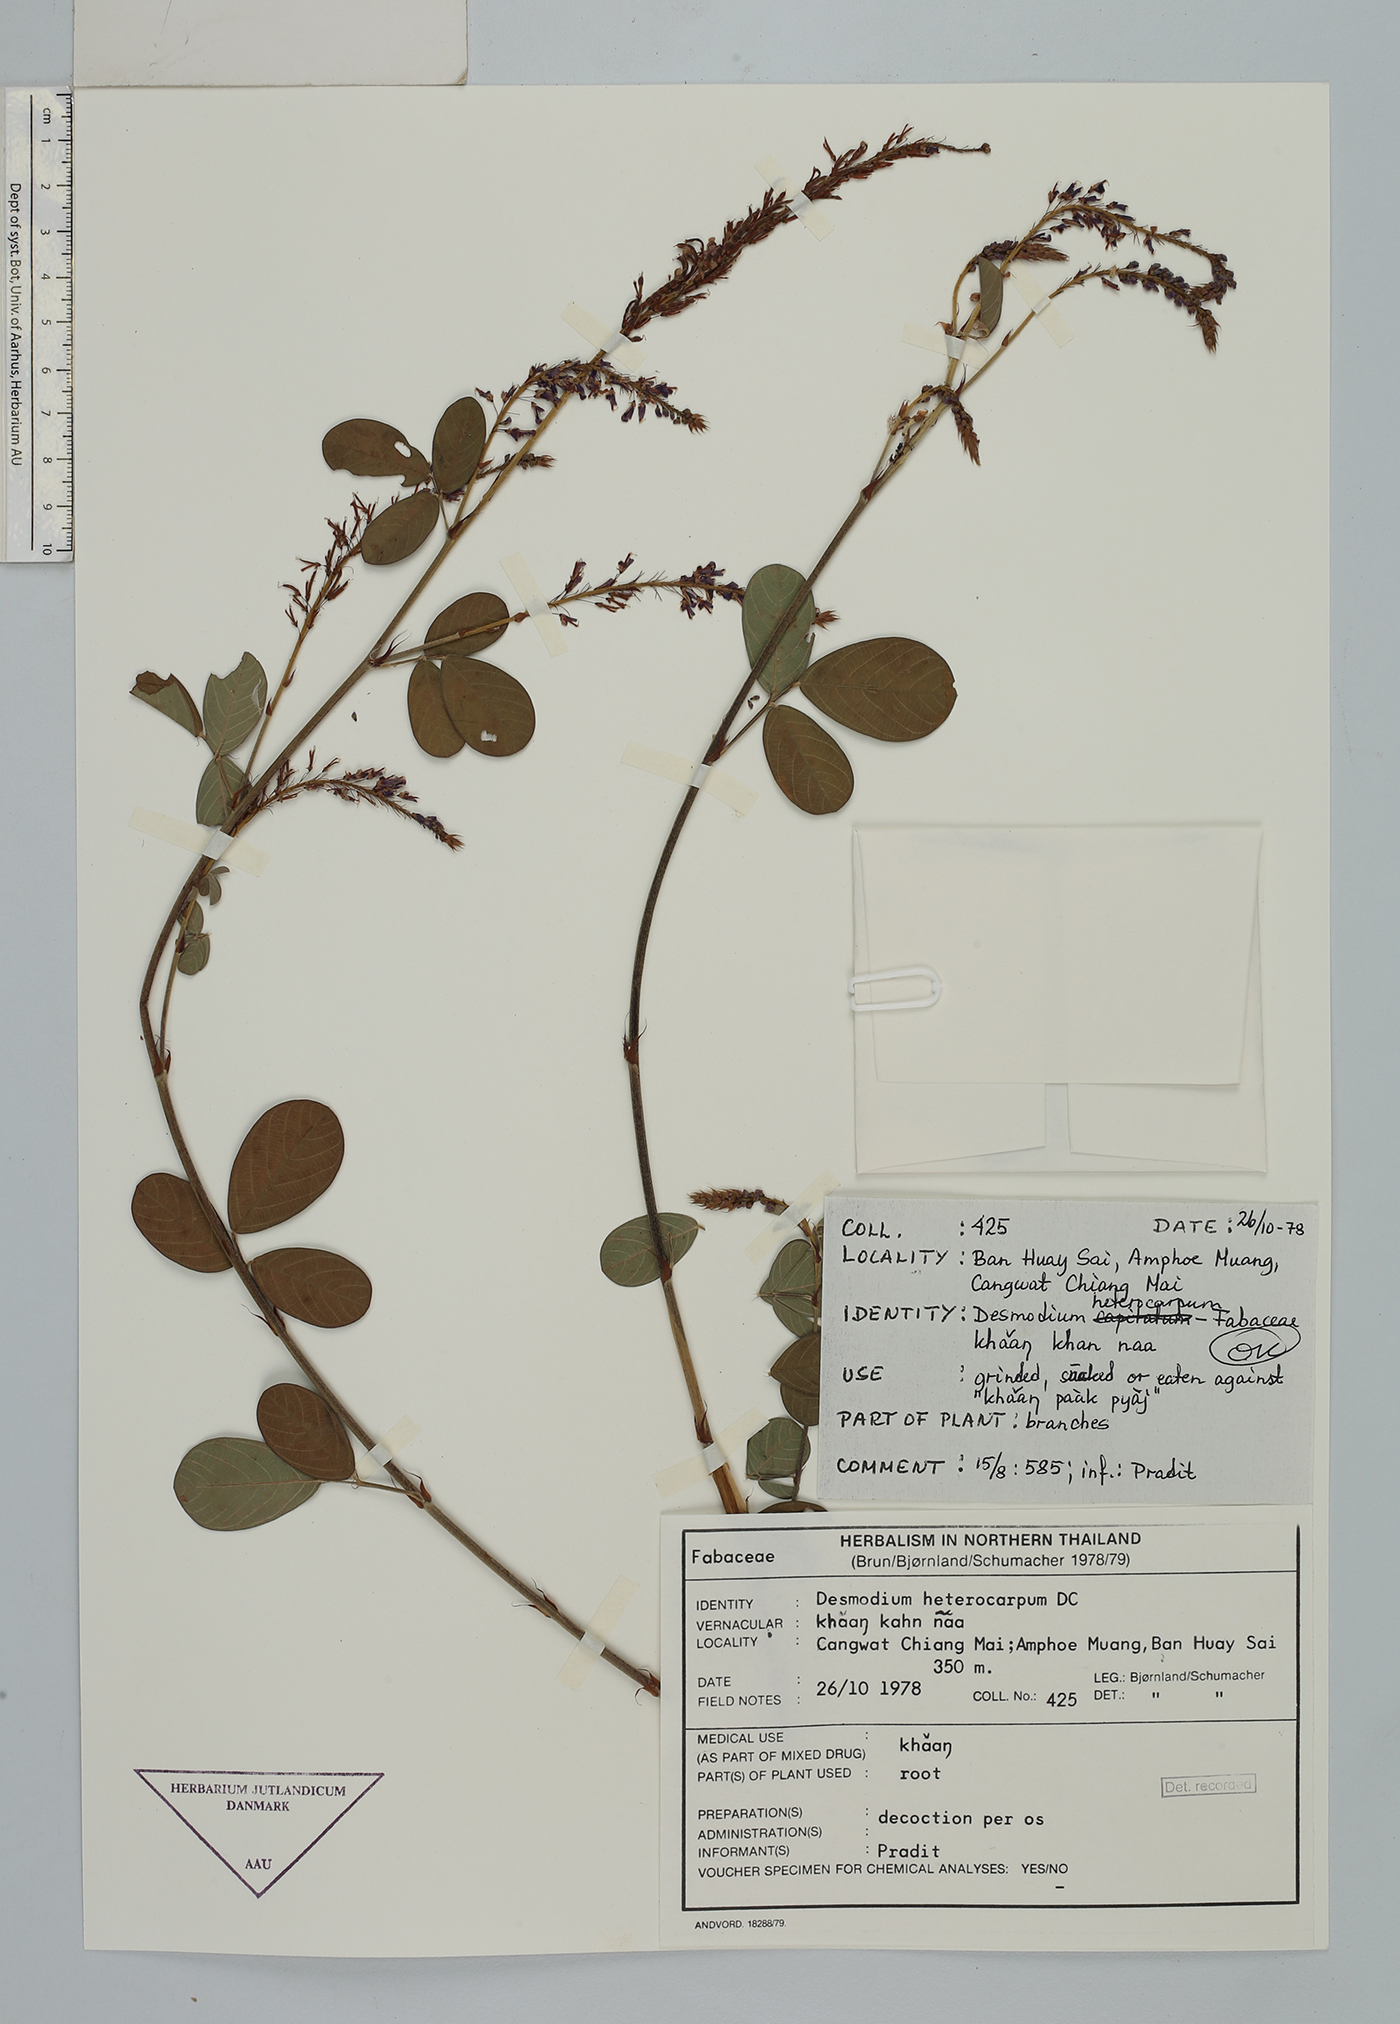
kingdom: Plantae
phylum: Tracheophyta
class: Magnoliopsida
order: Fabales
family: Fabaceae
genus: Grona
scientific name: Grona heterocarpos
